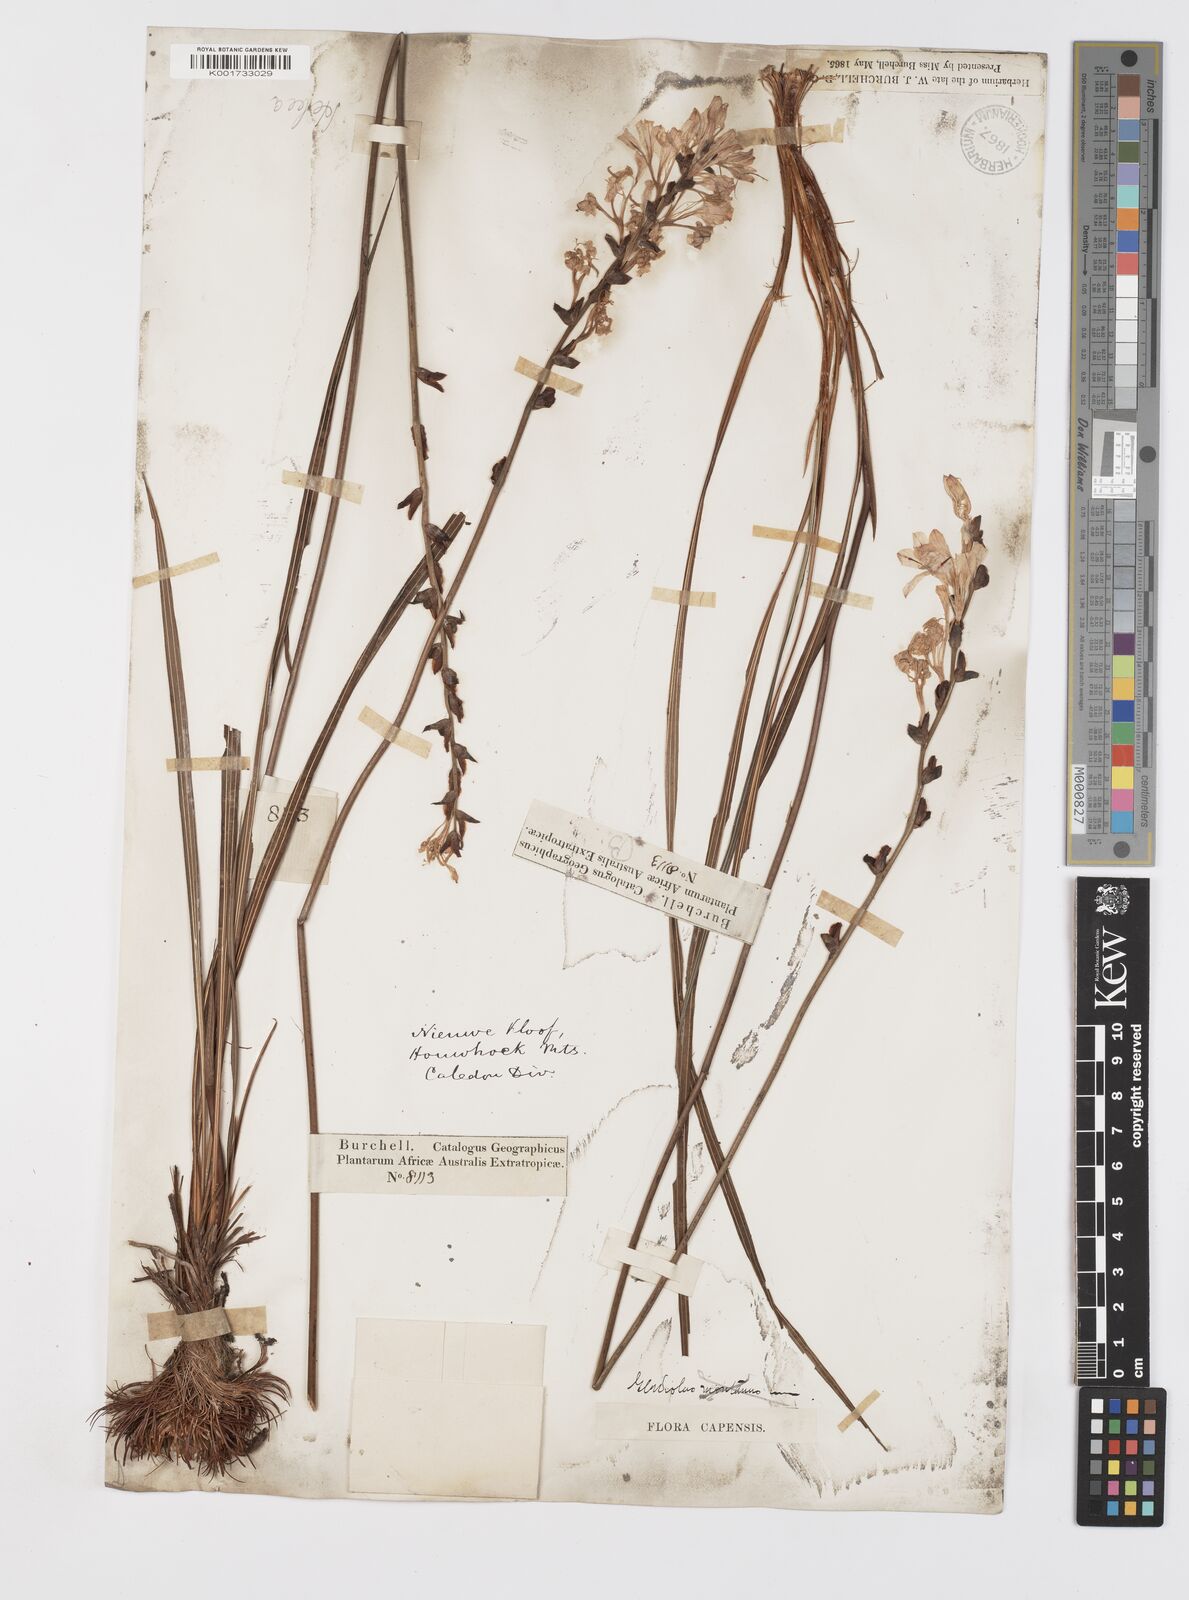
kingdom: Plantae
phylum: Tracheophyta
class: Liliopsida
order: Asparagales
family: Iridaceae
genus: Tritoniopsis
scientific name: Tritoniopsis lata
